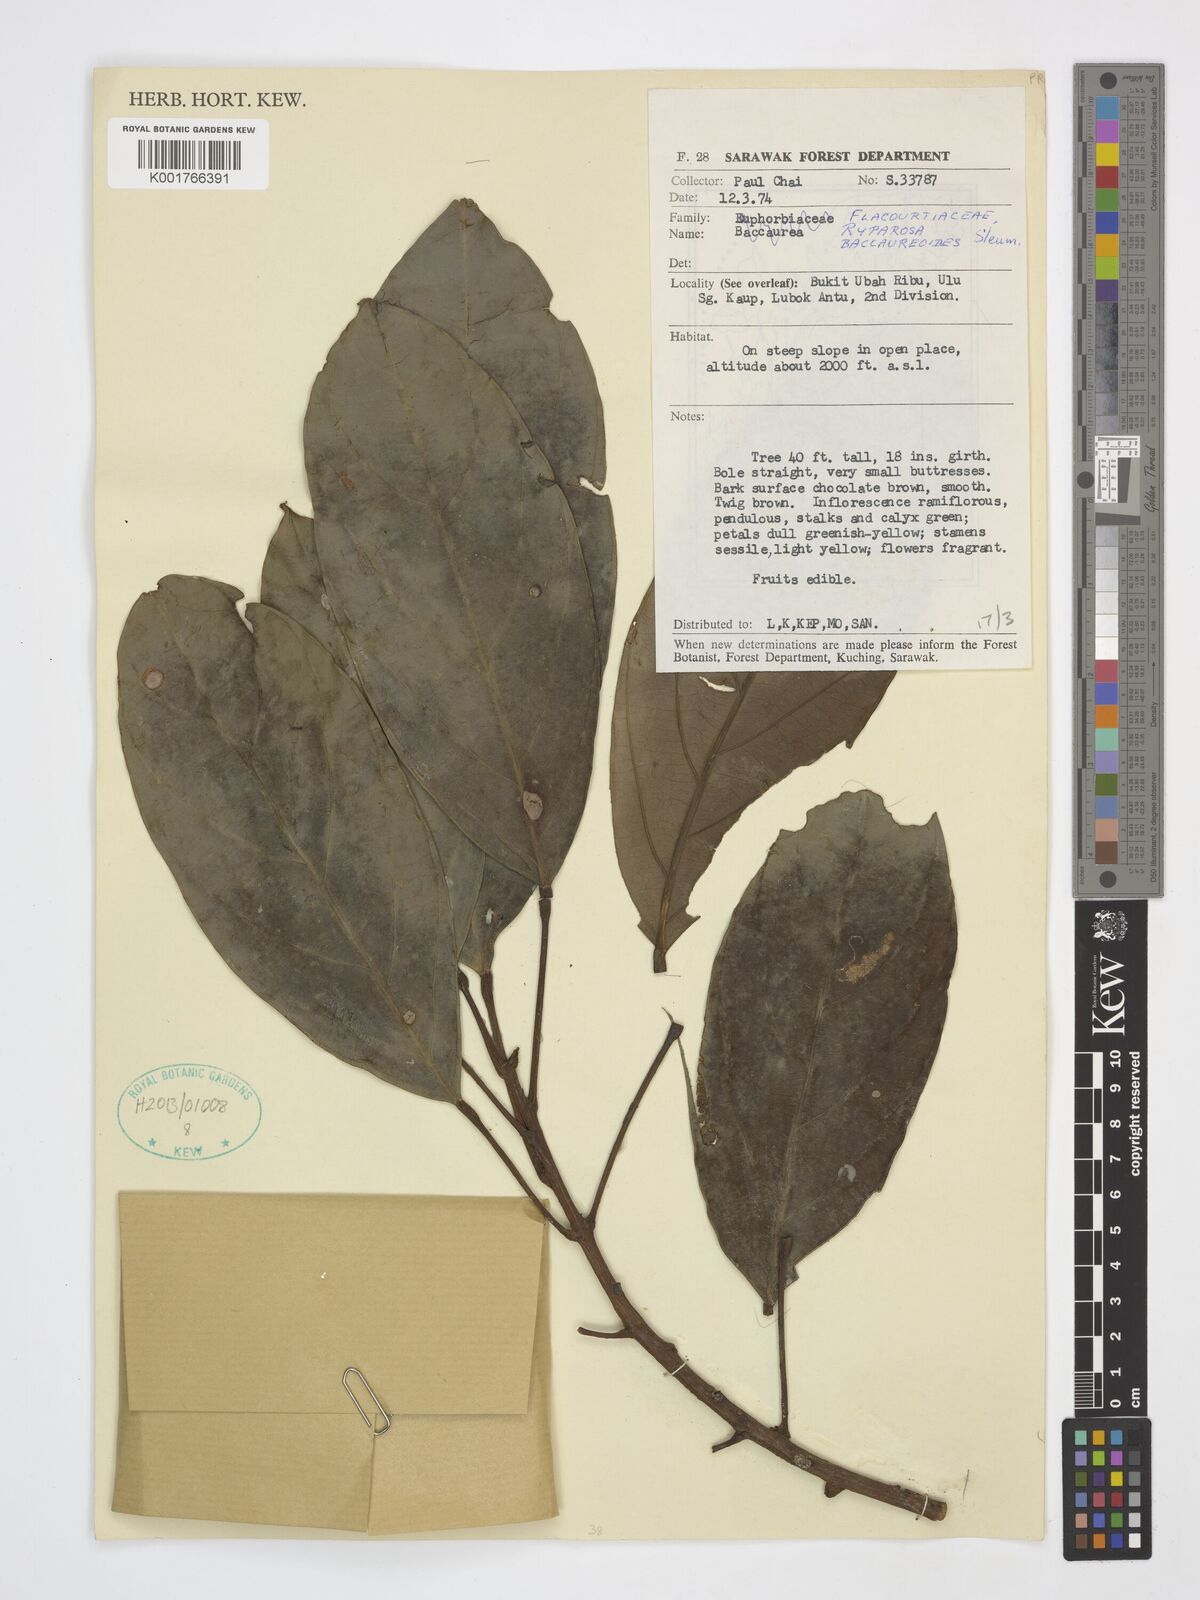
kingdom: Plantae
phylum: Tracheophyta
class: Magnoliopsida
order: Malpighiales
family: Achariaceae
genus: Ryparosa
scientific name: Ryparosa baccaureoides
